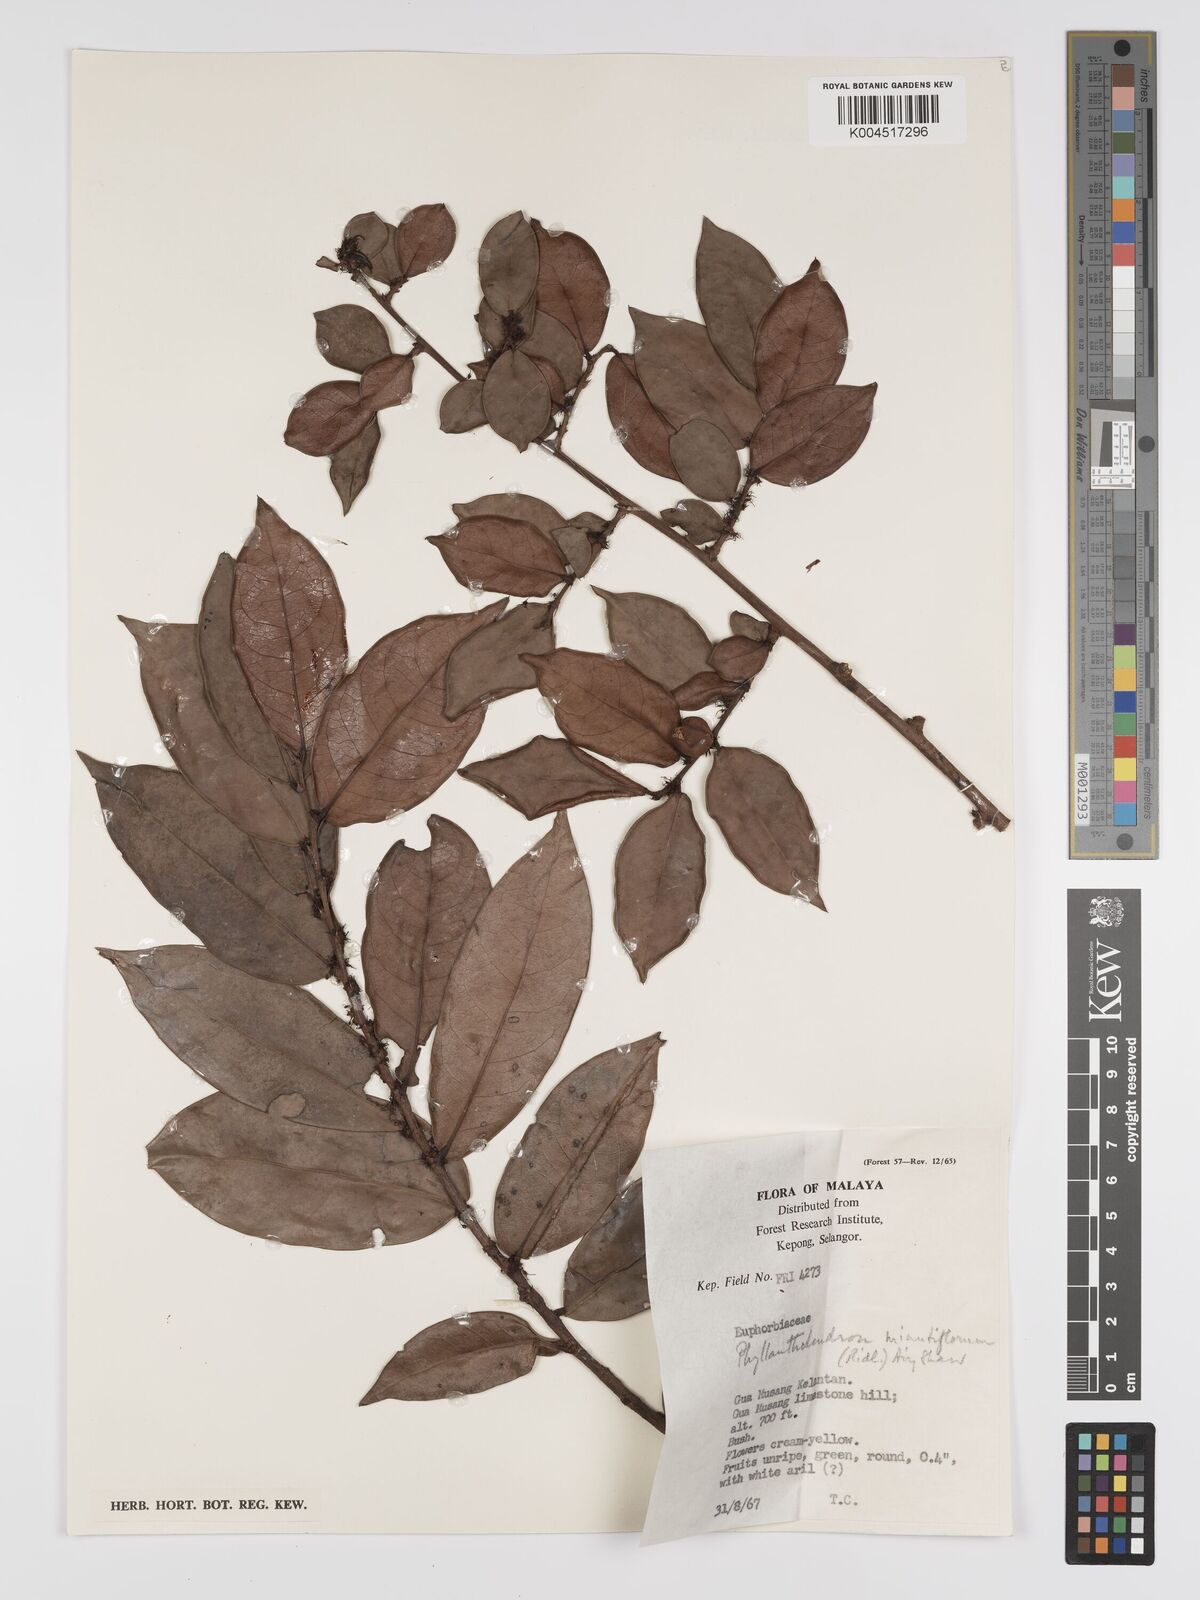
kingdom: Plantae
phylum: Tracheophyta
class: Magnoliopsida
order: Malpighiales
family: Phyllanthaceae
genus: Phyllanthus
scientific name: Phyllanthus ridleyanus
